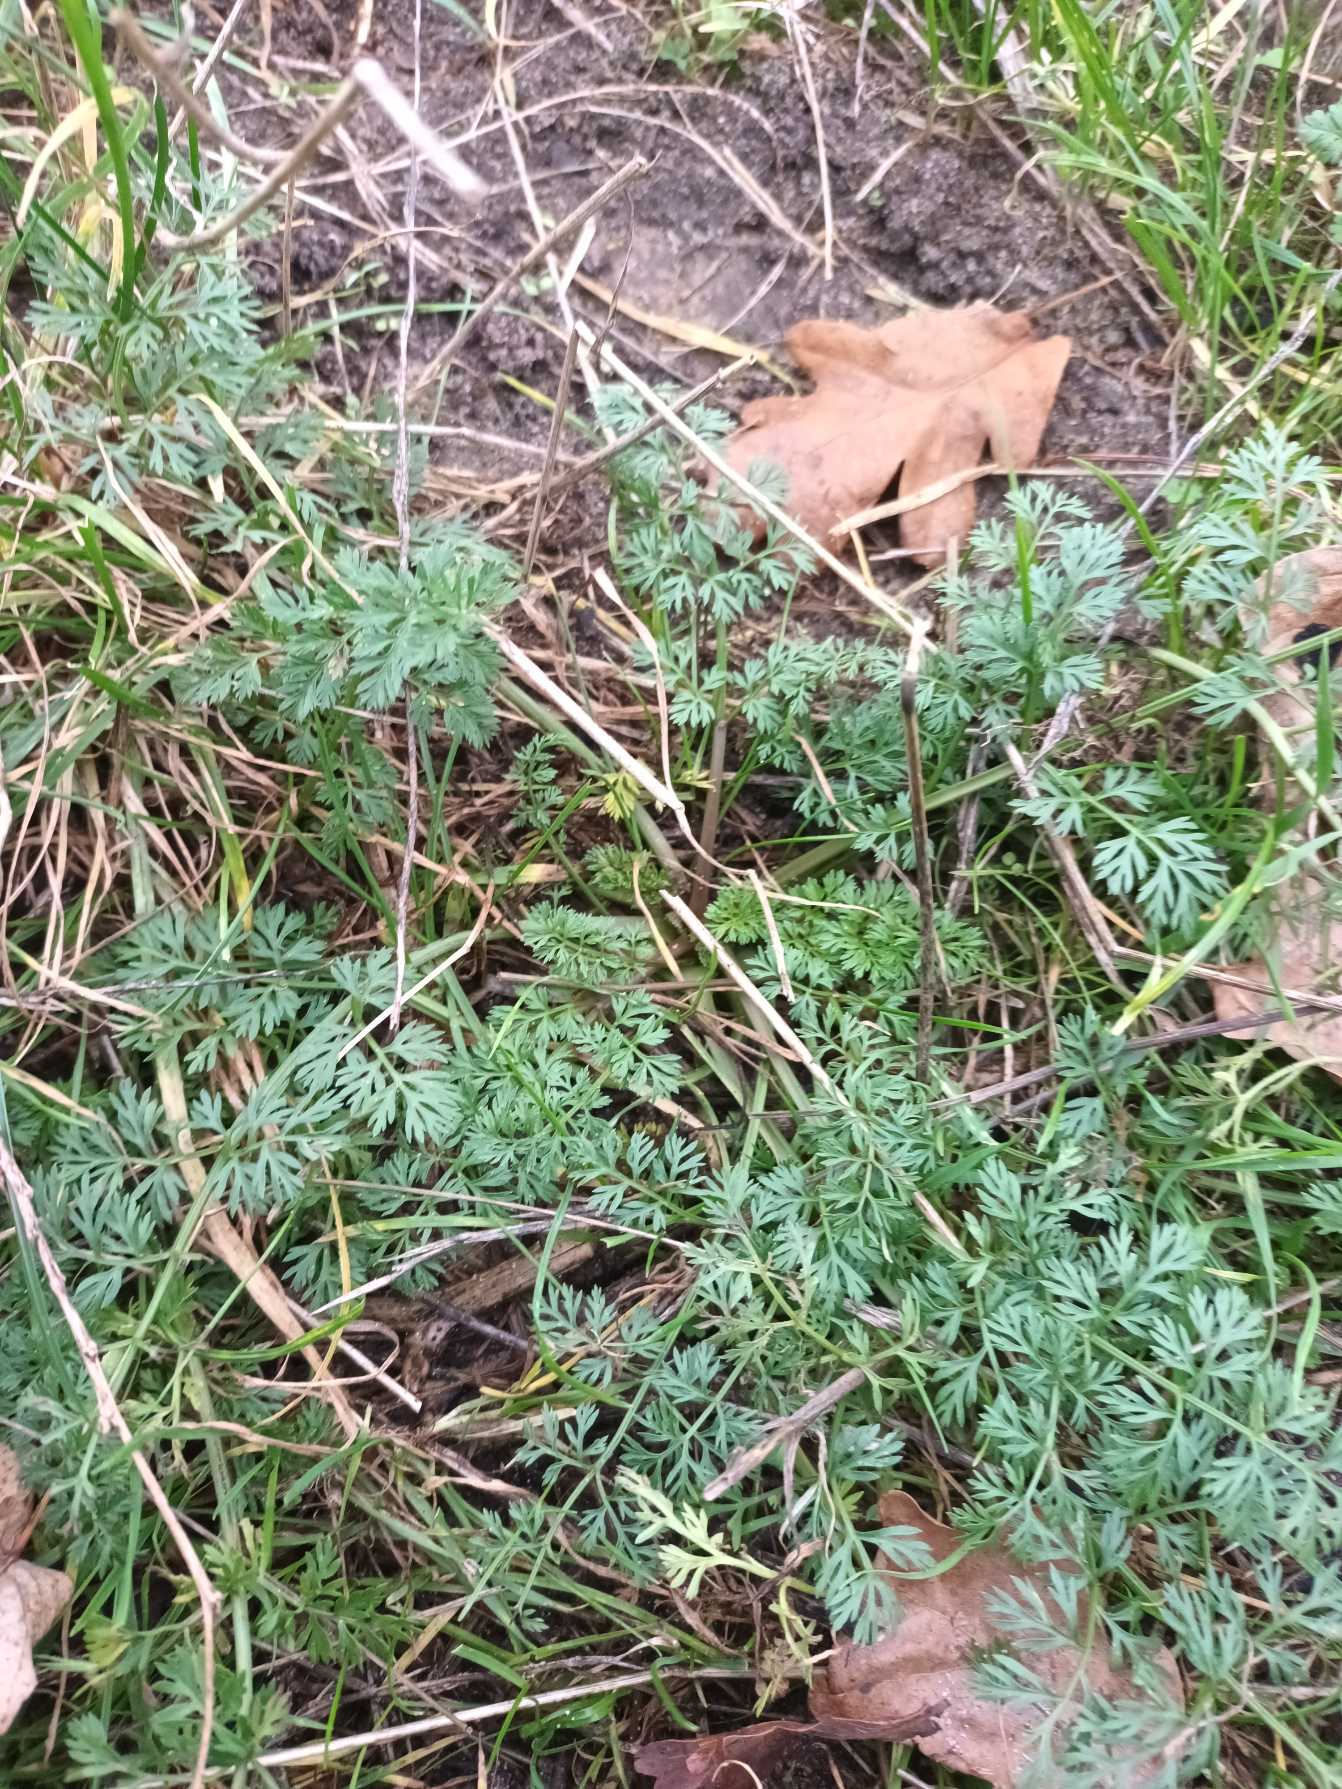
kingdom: Plantae
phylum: Tracheophyta
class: Magnoliopsida
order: Apiales
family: Apiaceae
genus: Daucus
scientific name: Daucus carota
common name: Gulerod
